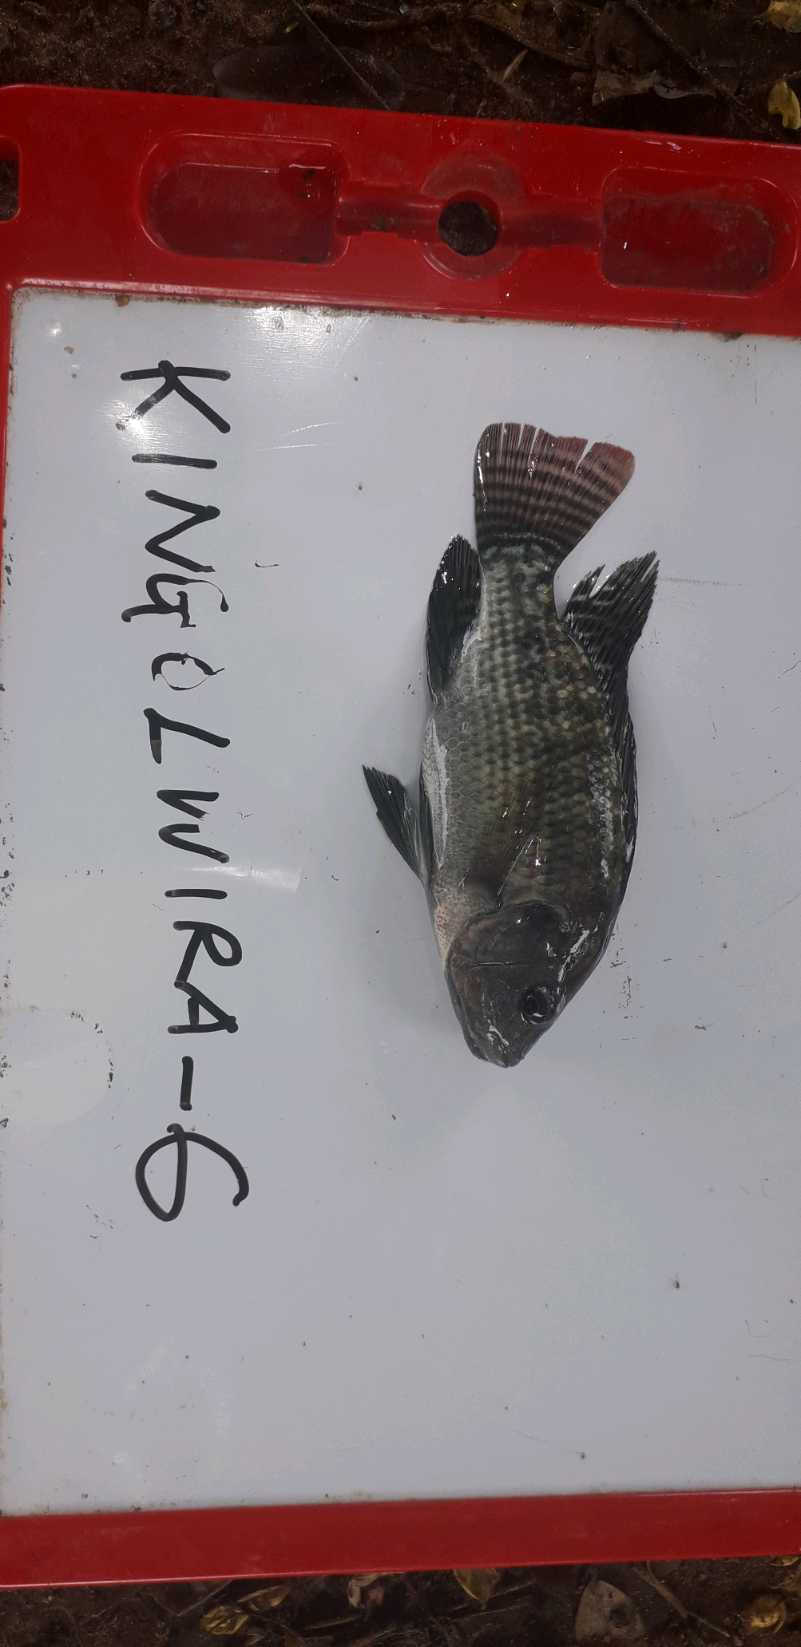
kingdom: Animalia
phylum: Chordata
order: Perciformes
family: Cichlidae
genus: Oreochromis
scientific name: Oreochromis niloticus
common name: Nile tilapia
